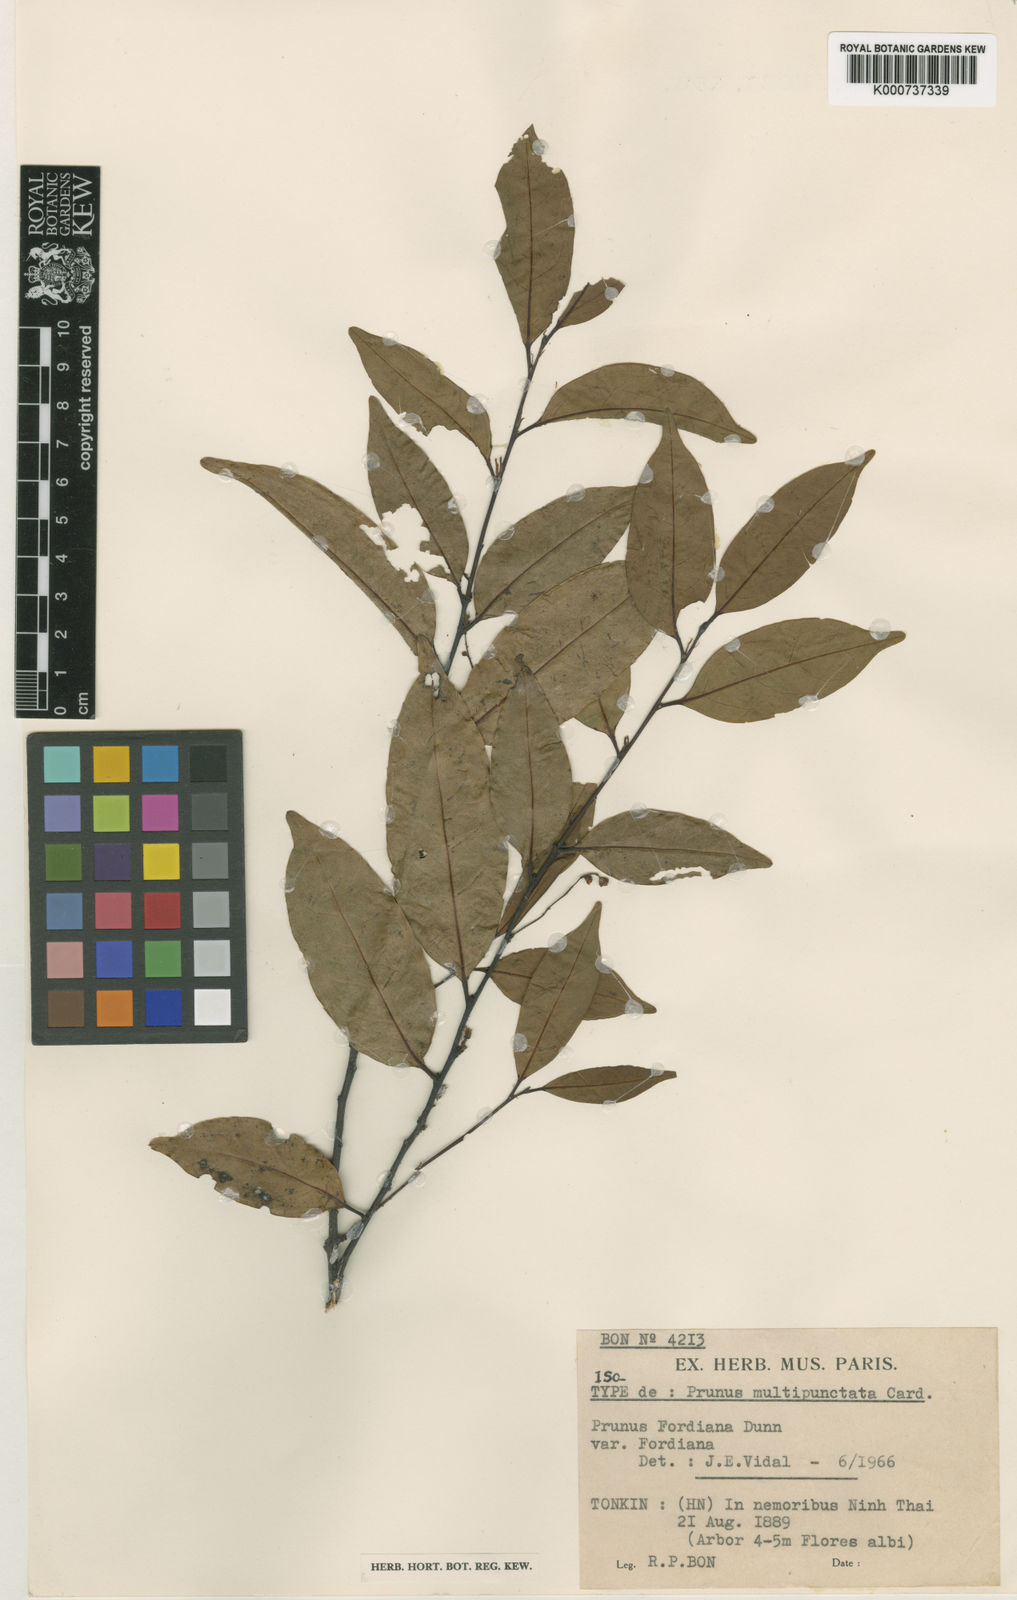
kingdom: Plantae
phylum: Tracheophyta
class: Magnoliopsida
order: Rosales
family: Rosaceae
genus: Prunus
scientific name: Prunus fordiana
